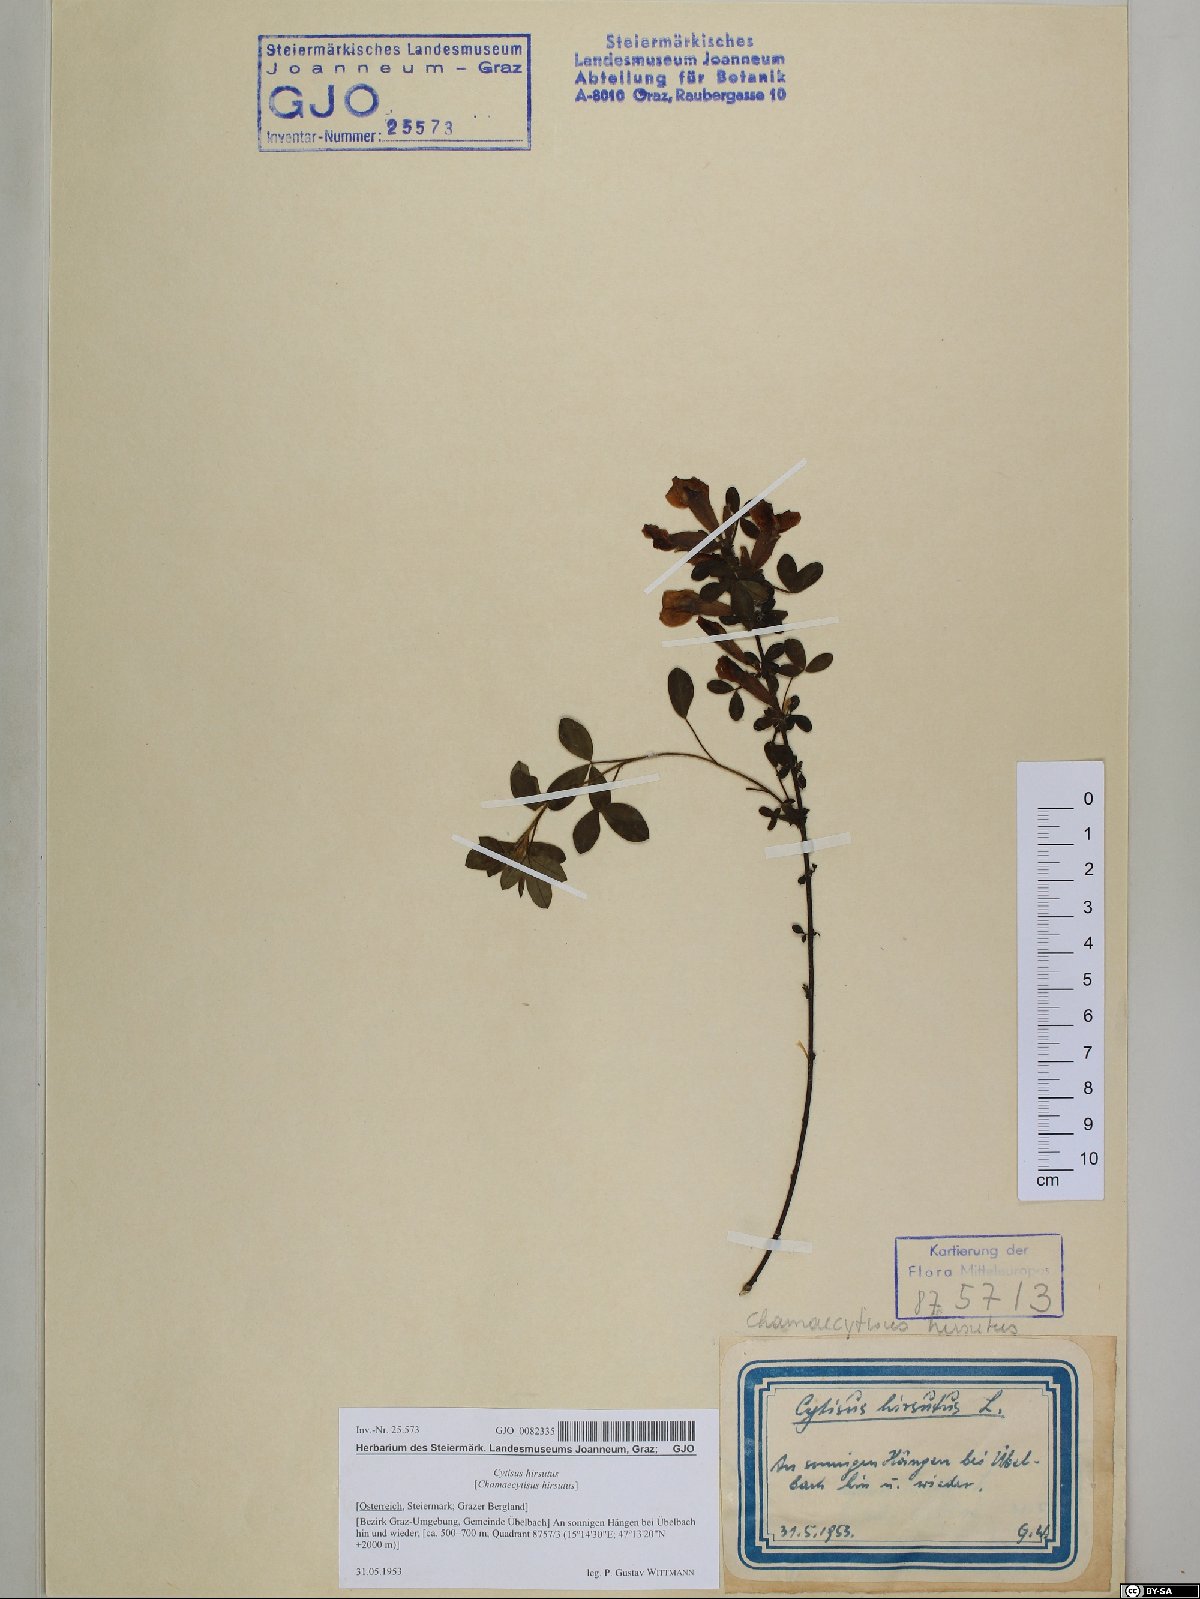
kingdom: Plantae
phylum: Tracheophyta
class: Magnoliopsida
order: Fabales
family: Fabaceae
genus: Chamaecytisus
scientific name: Chamaecytisus hirsutus
